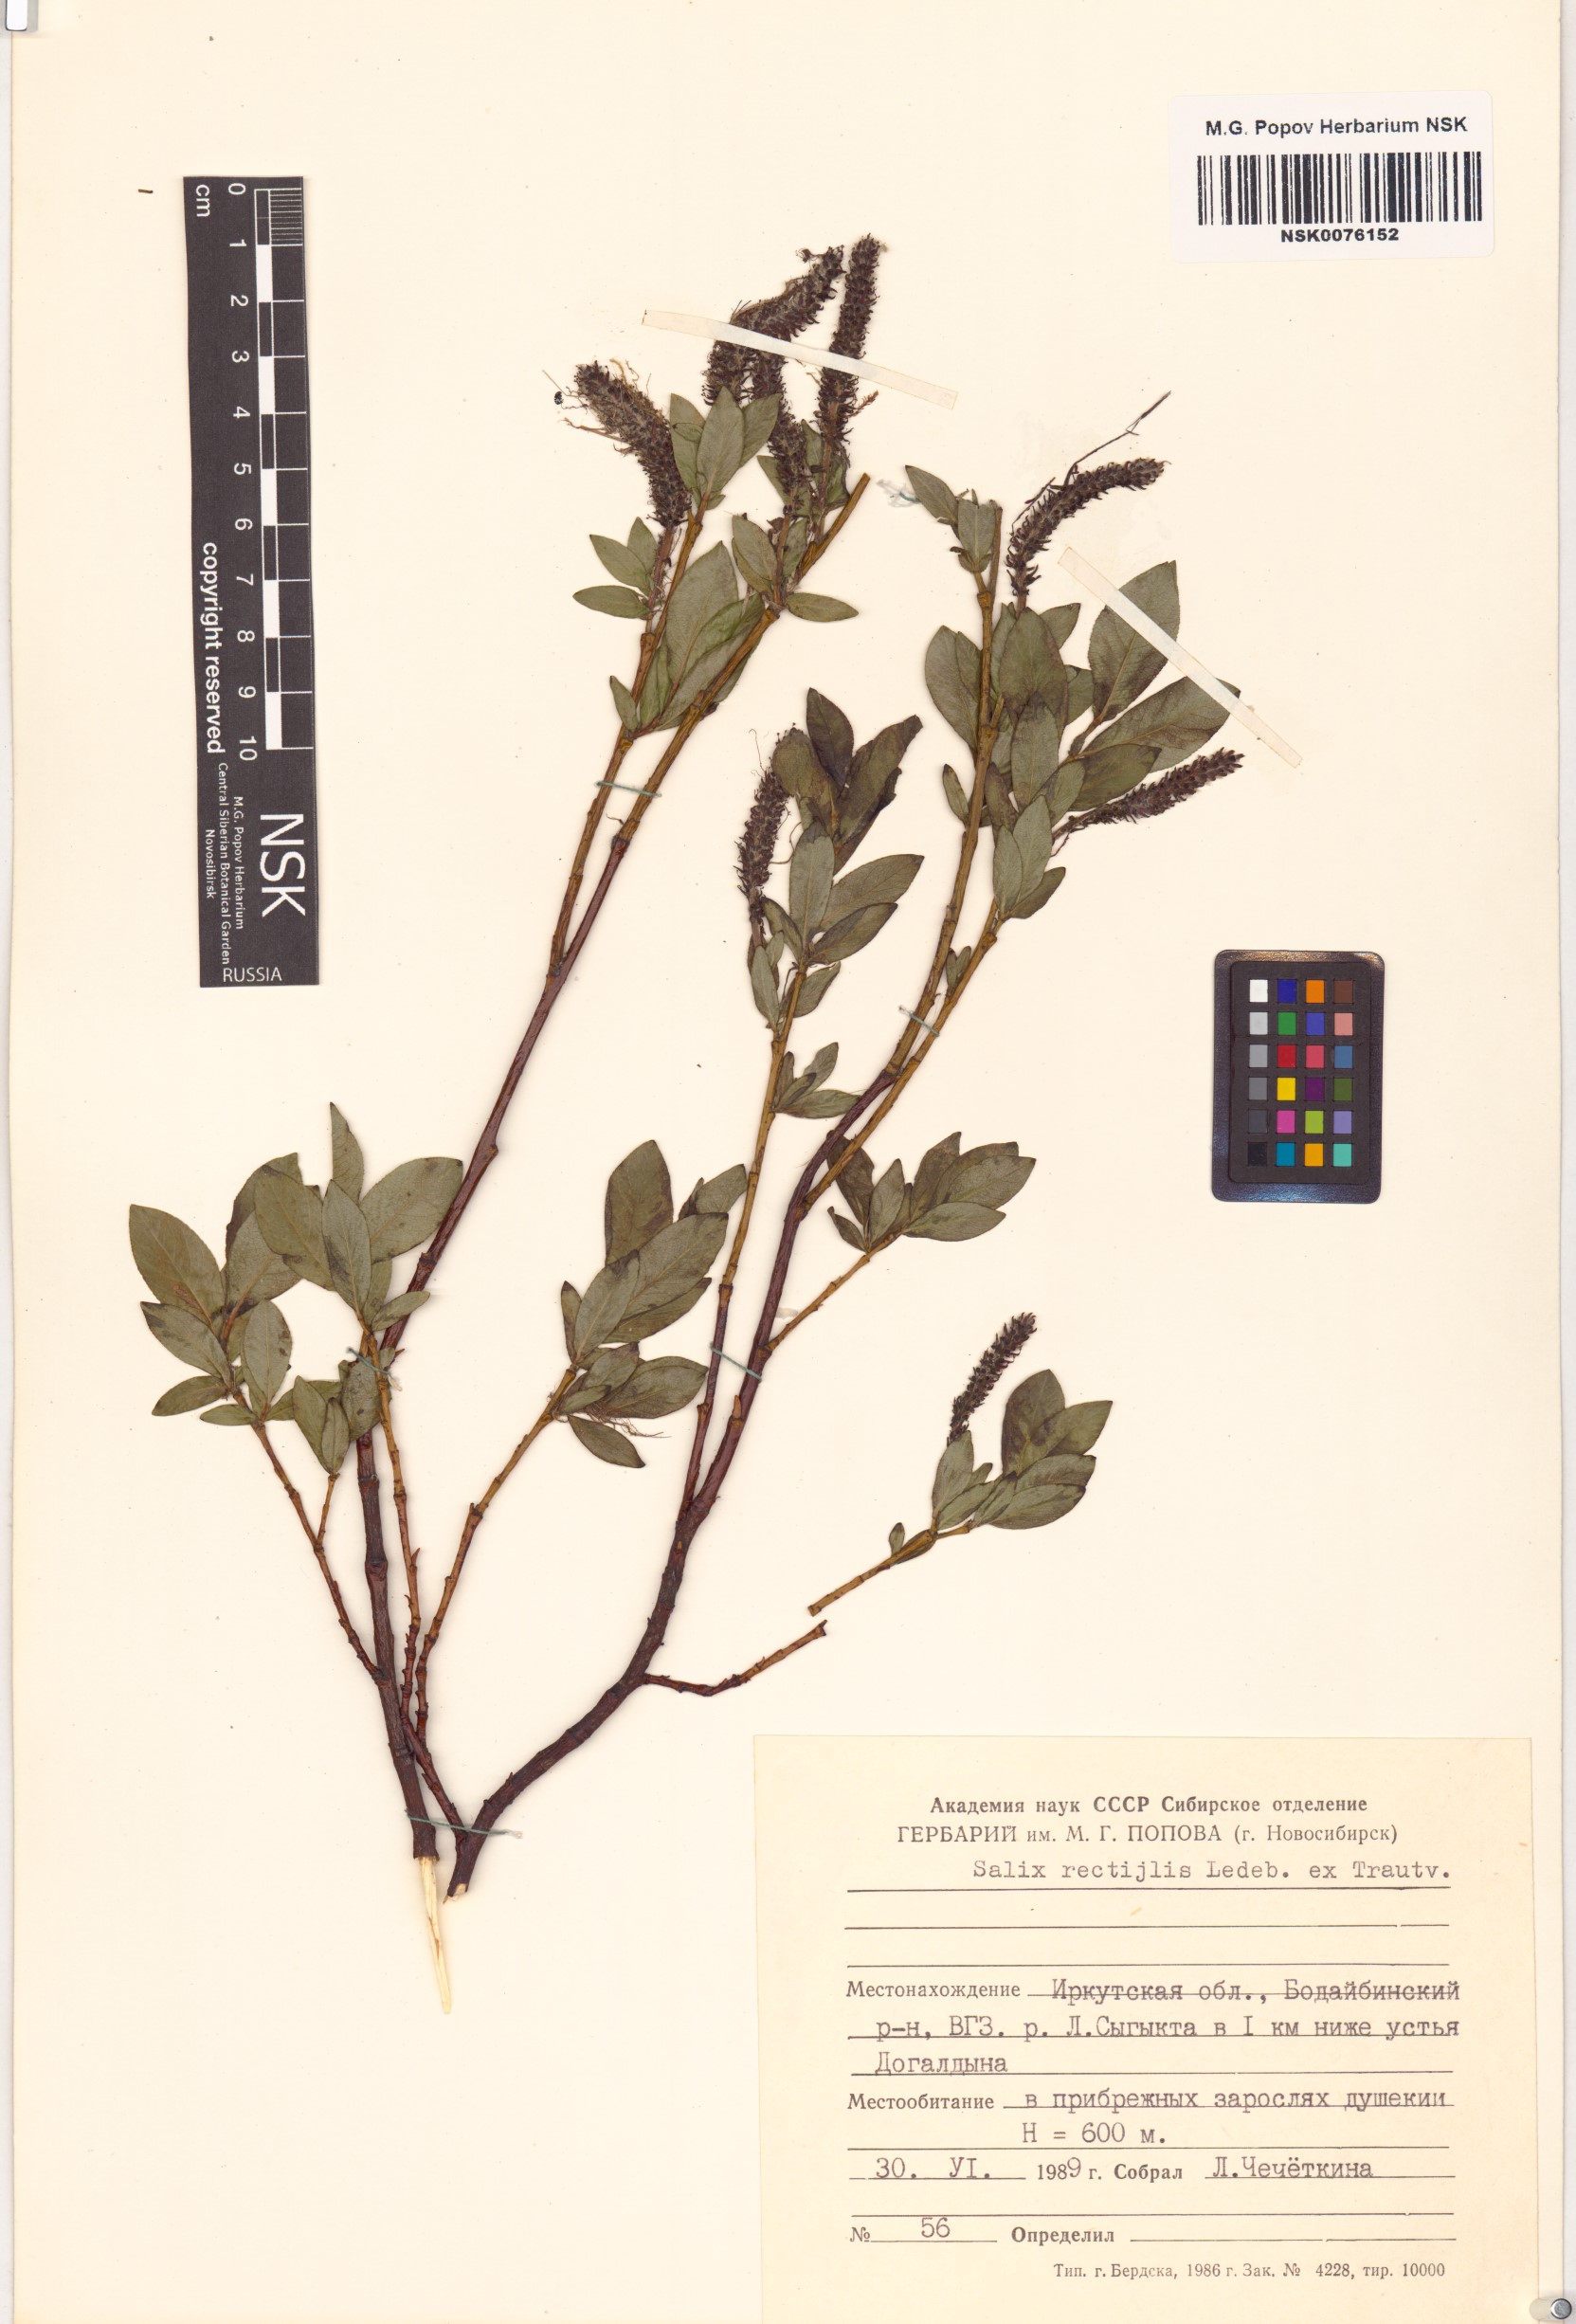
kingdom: Plantae
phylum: Tracheophyta
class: Magnoliopsida
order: Malpighiales
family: Salicaceae
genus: Salix
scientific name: Salix rectijulis
